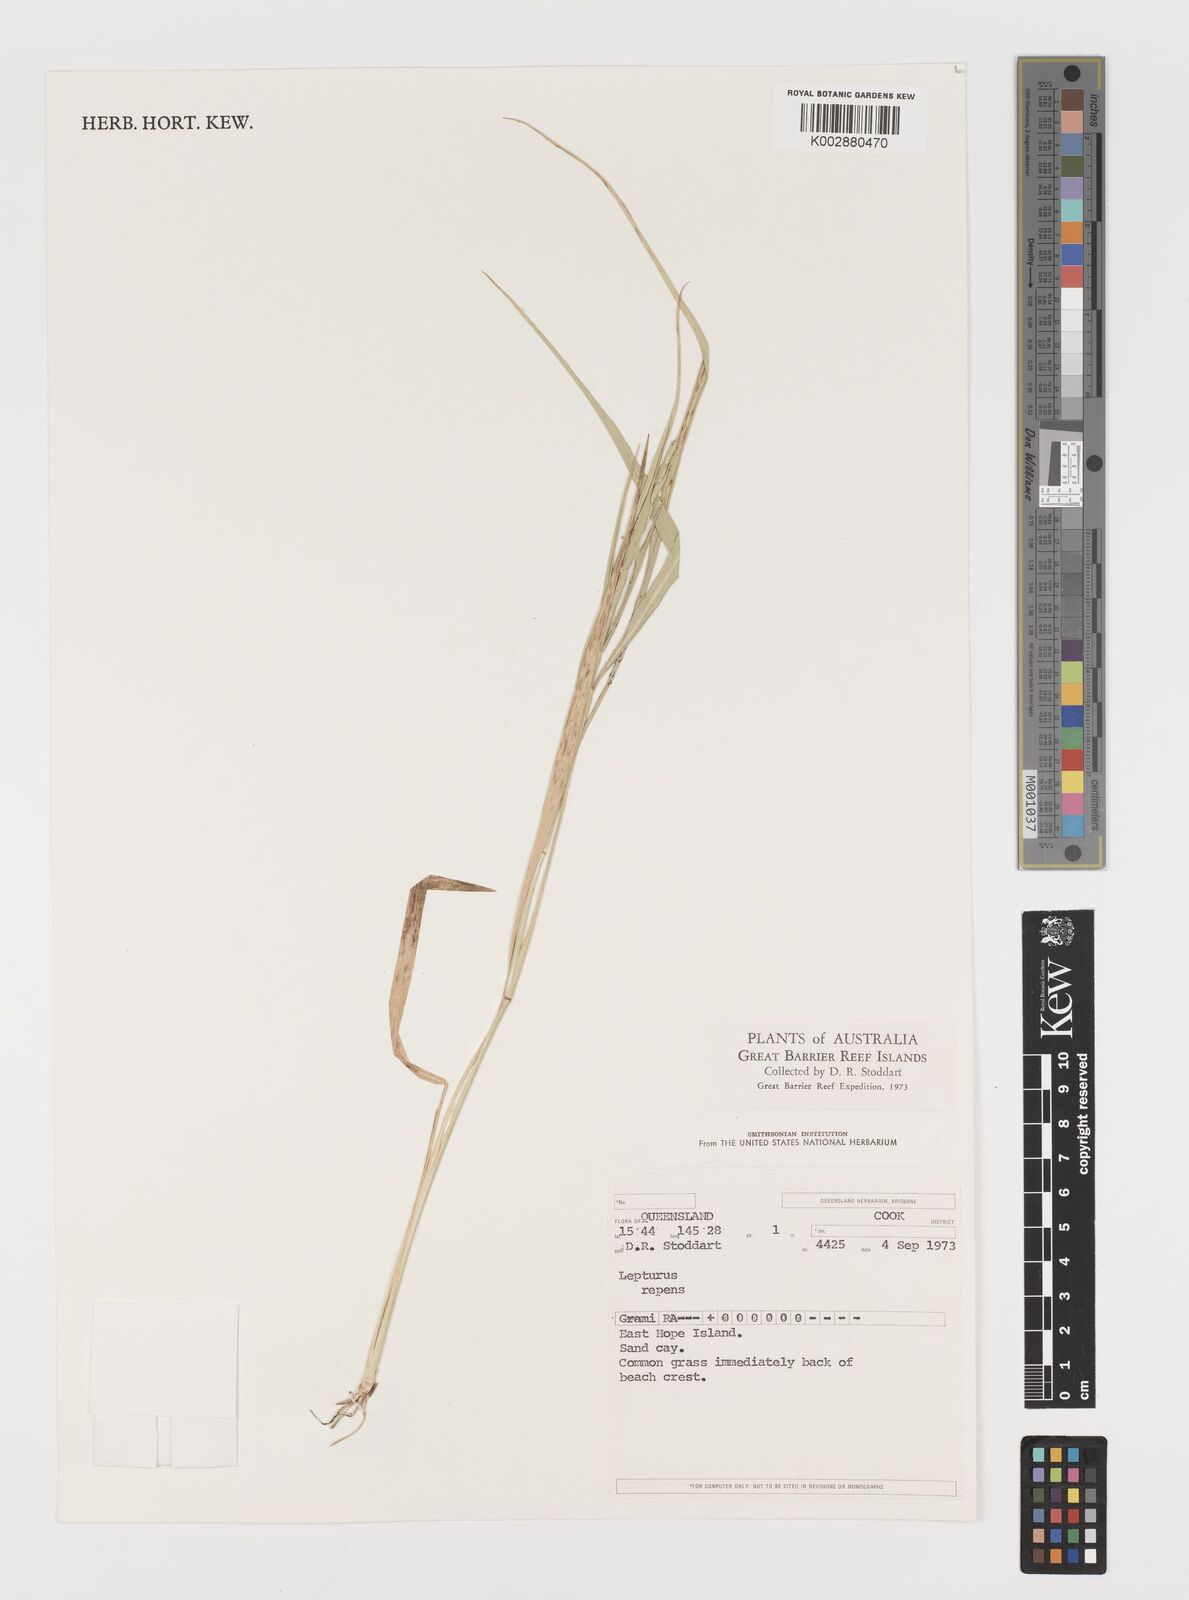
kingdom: Plantae
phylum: Tracheophyta
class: Liliopsida
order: Poales
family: Poaceae
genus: Lepturus
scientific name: Lepturus repens
